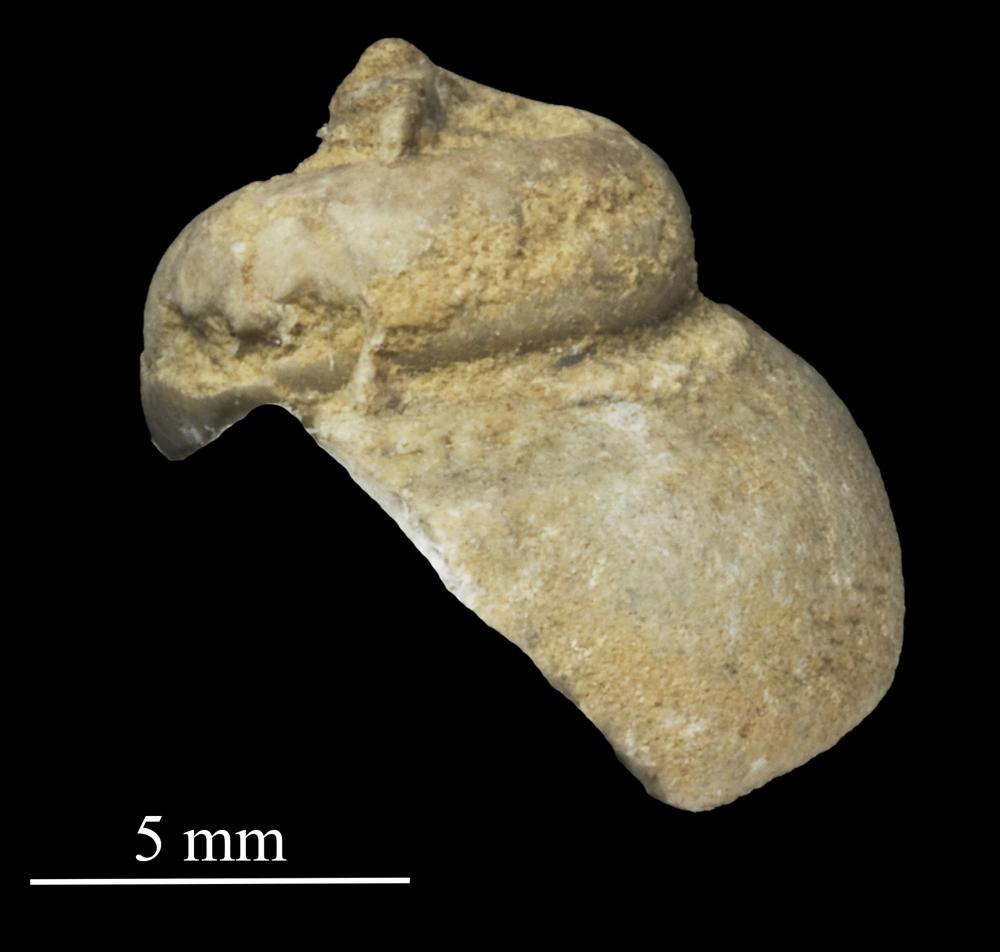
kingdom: Animalia
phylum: Mollusca
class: Gastropoda
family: Lophospiridae
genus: Loxoplocus
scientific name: Loxoplocus Lophospira sedgwicki
